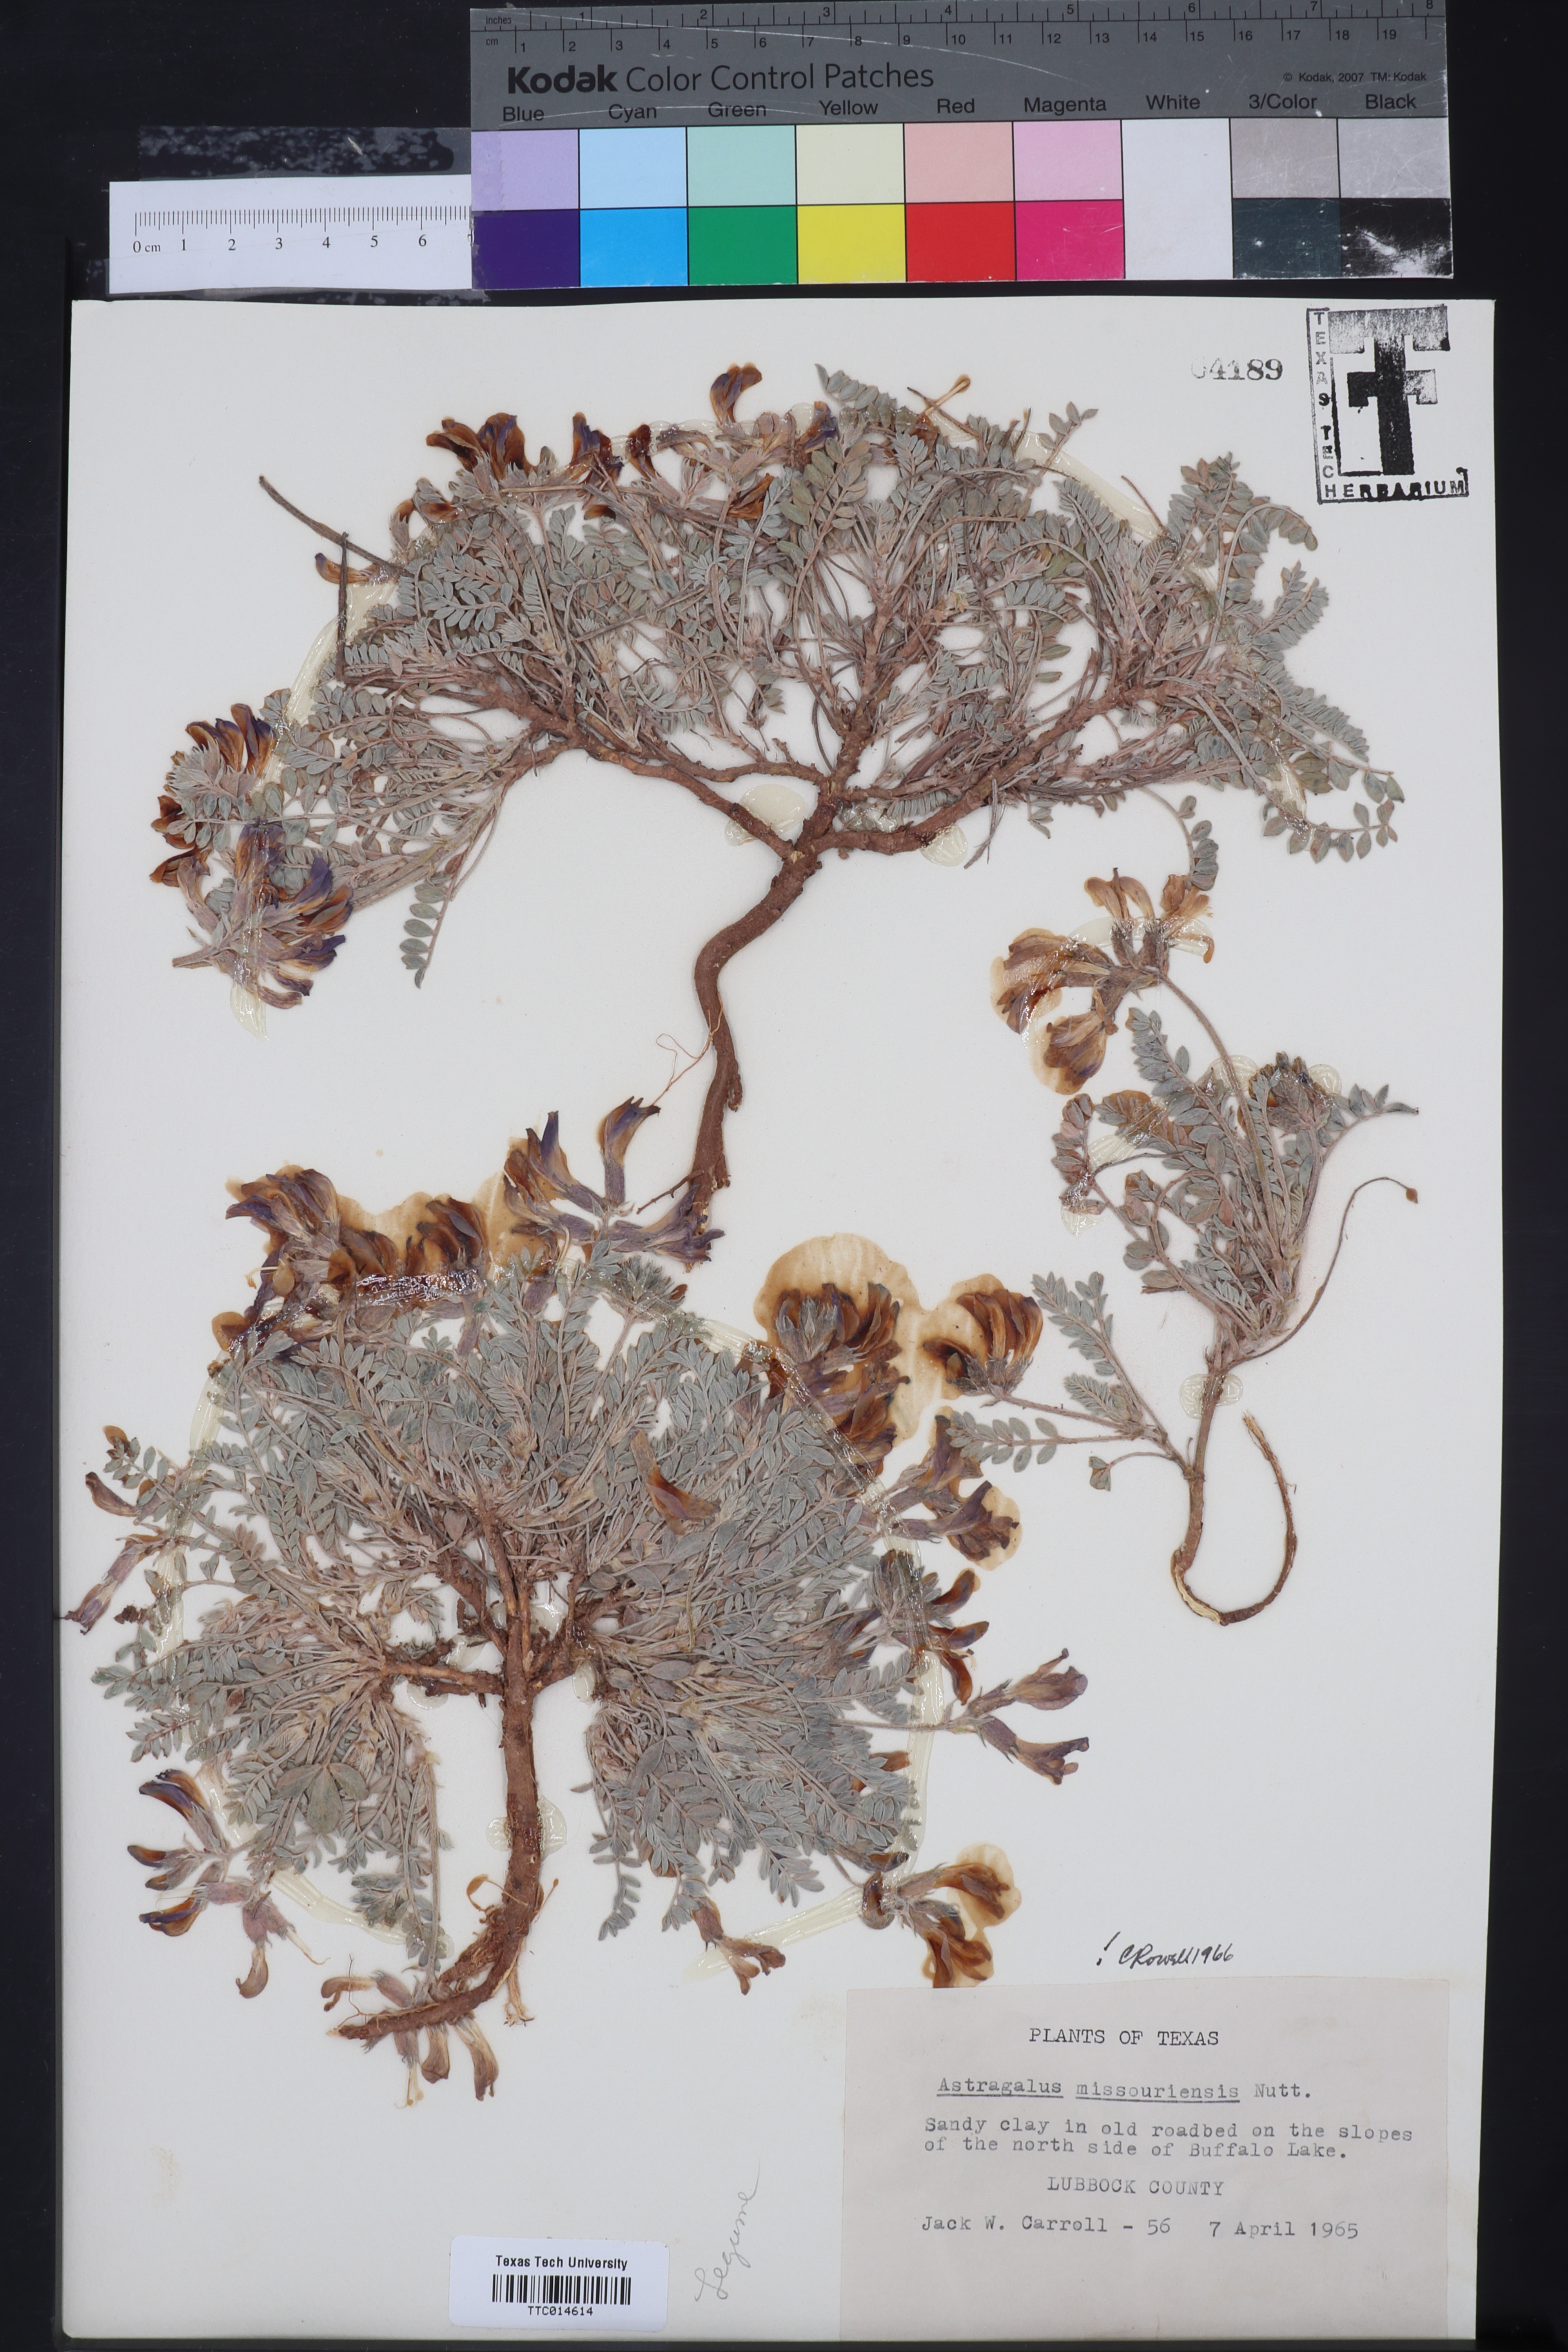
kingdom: Plantae
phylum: Tracheophyta
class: Magnoliopsida
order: Fabales
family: Fabaceae
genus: Astragalus
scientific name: Astragalus missouriensis
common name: Missouri milk-vetch
